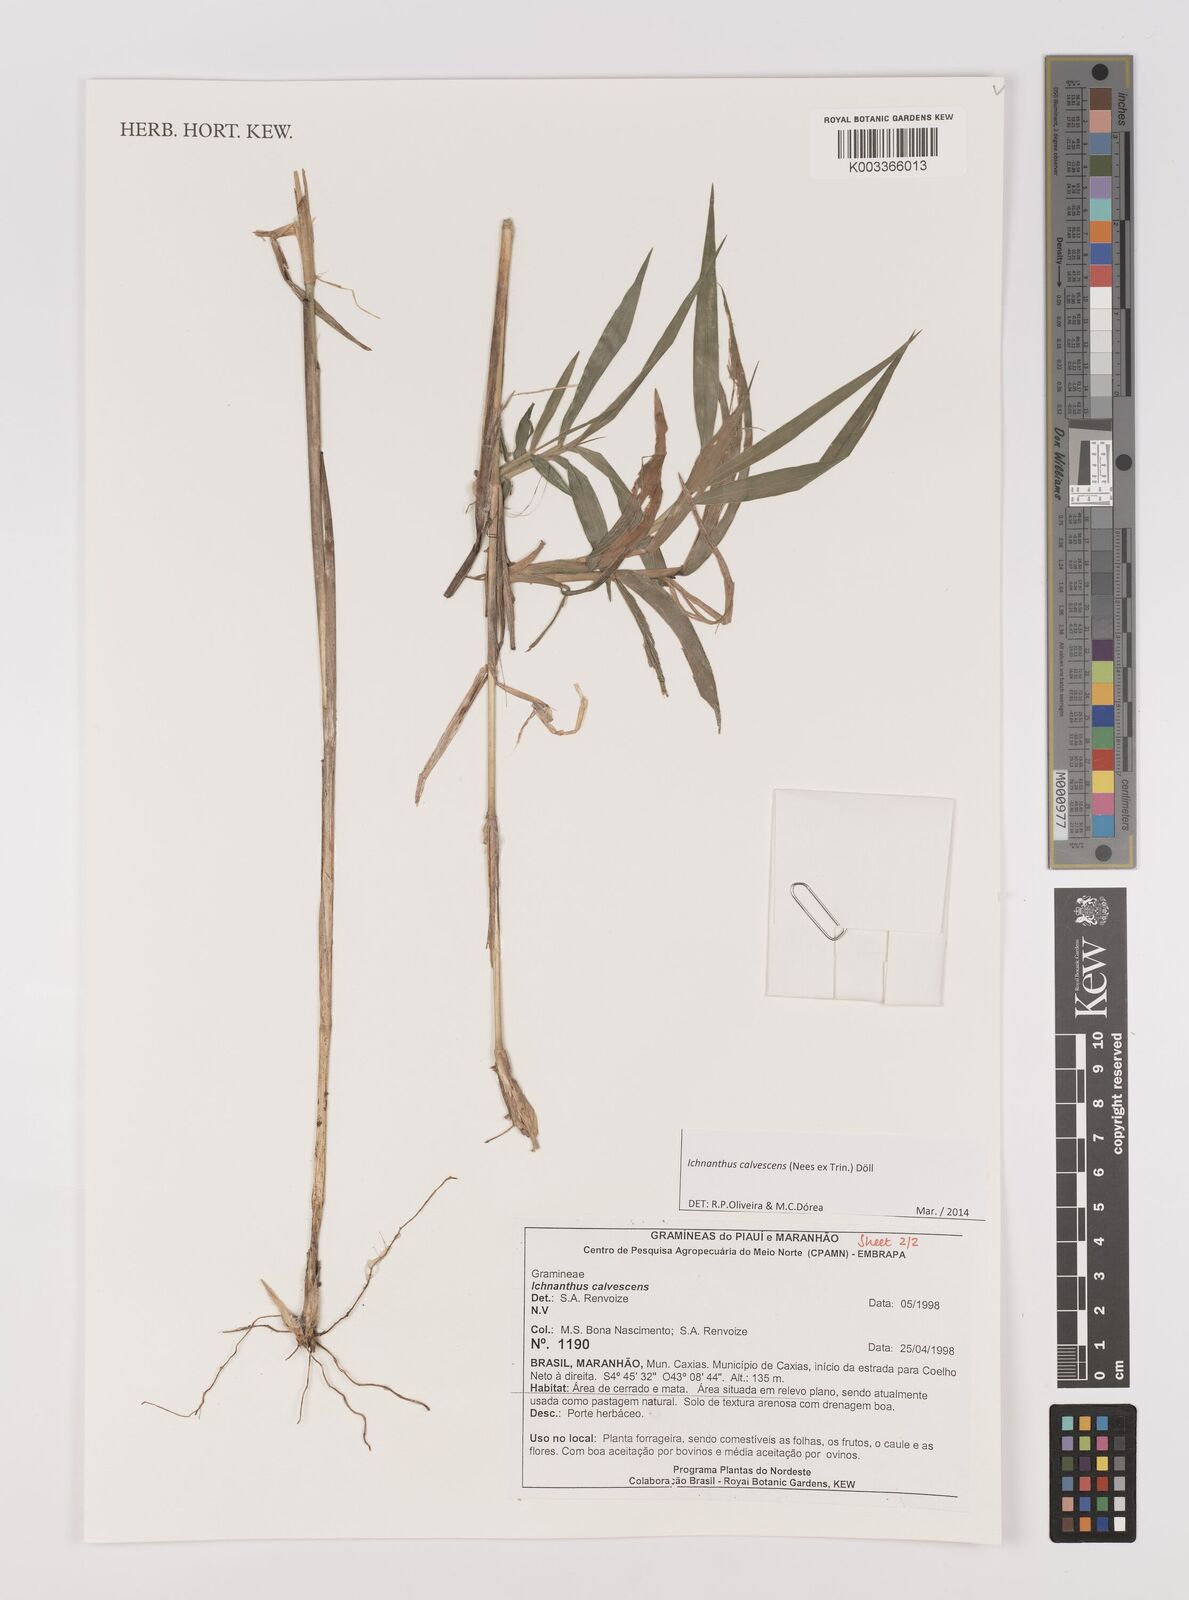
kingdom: Plantae
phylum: Tracheophyta
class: Liliopsida
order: Poales
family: Poaceae
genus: Ichnanthus
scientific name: Ichnanthus calvescens
